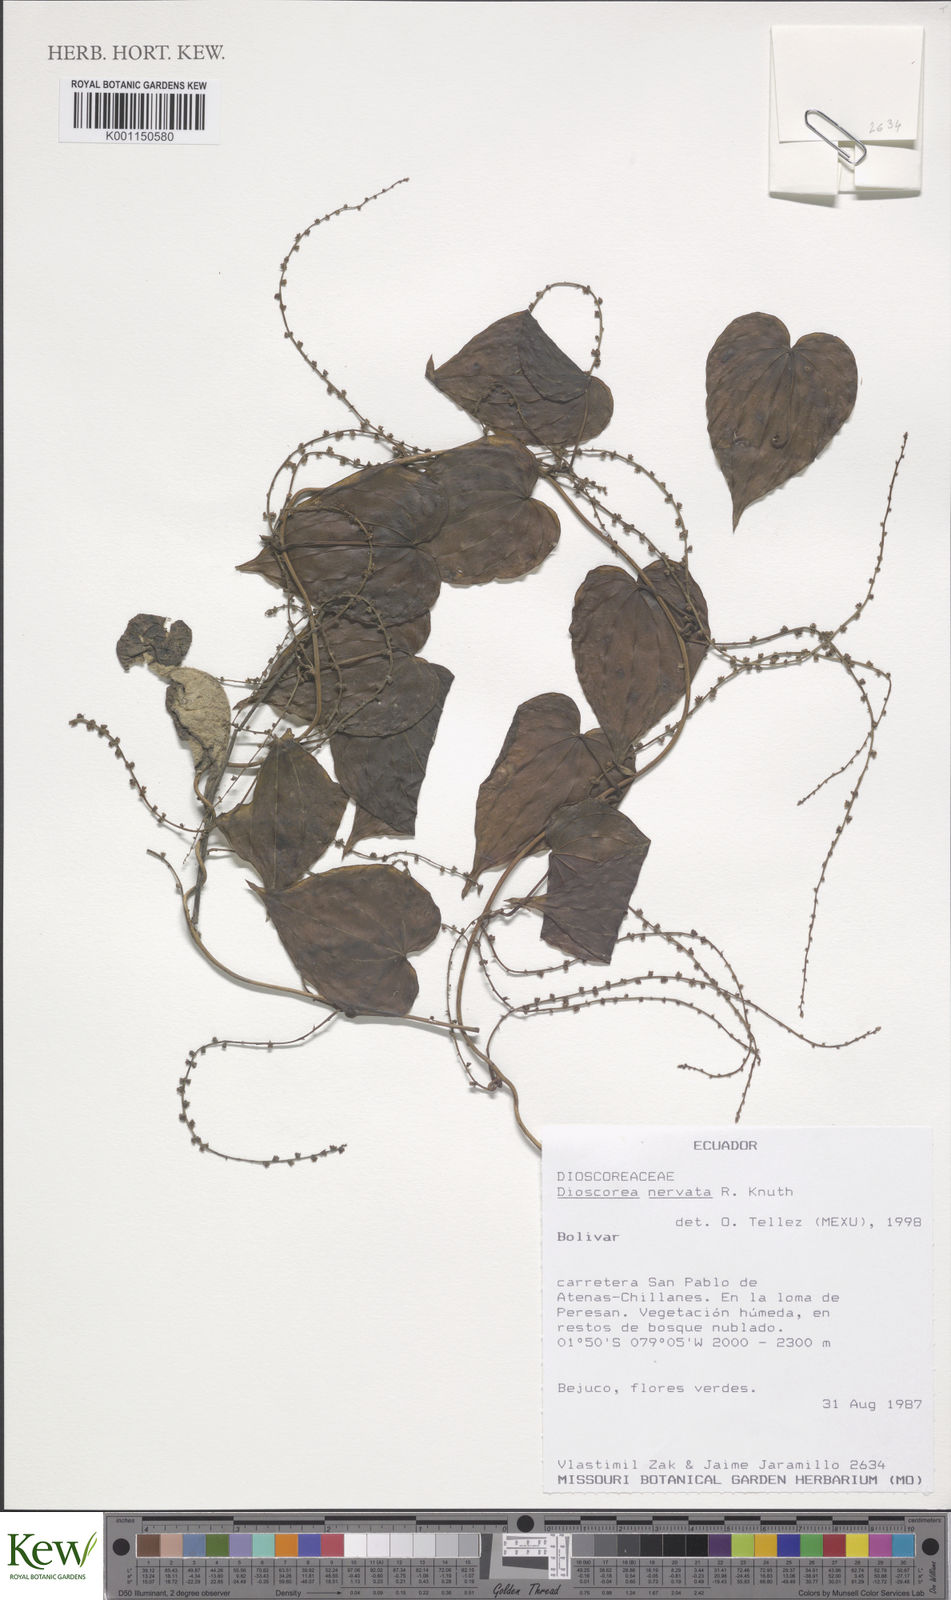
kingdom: Plantae
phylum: Tracheophyta
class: Liliopsida
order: Dioscoreales
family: Dioscoreaceae
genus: Dioscorea
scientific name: Dioscorea nervata
